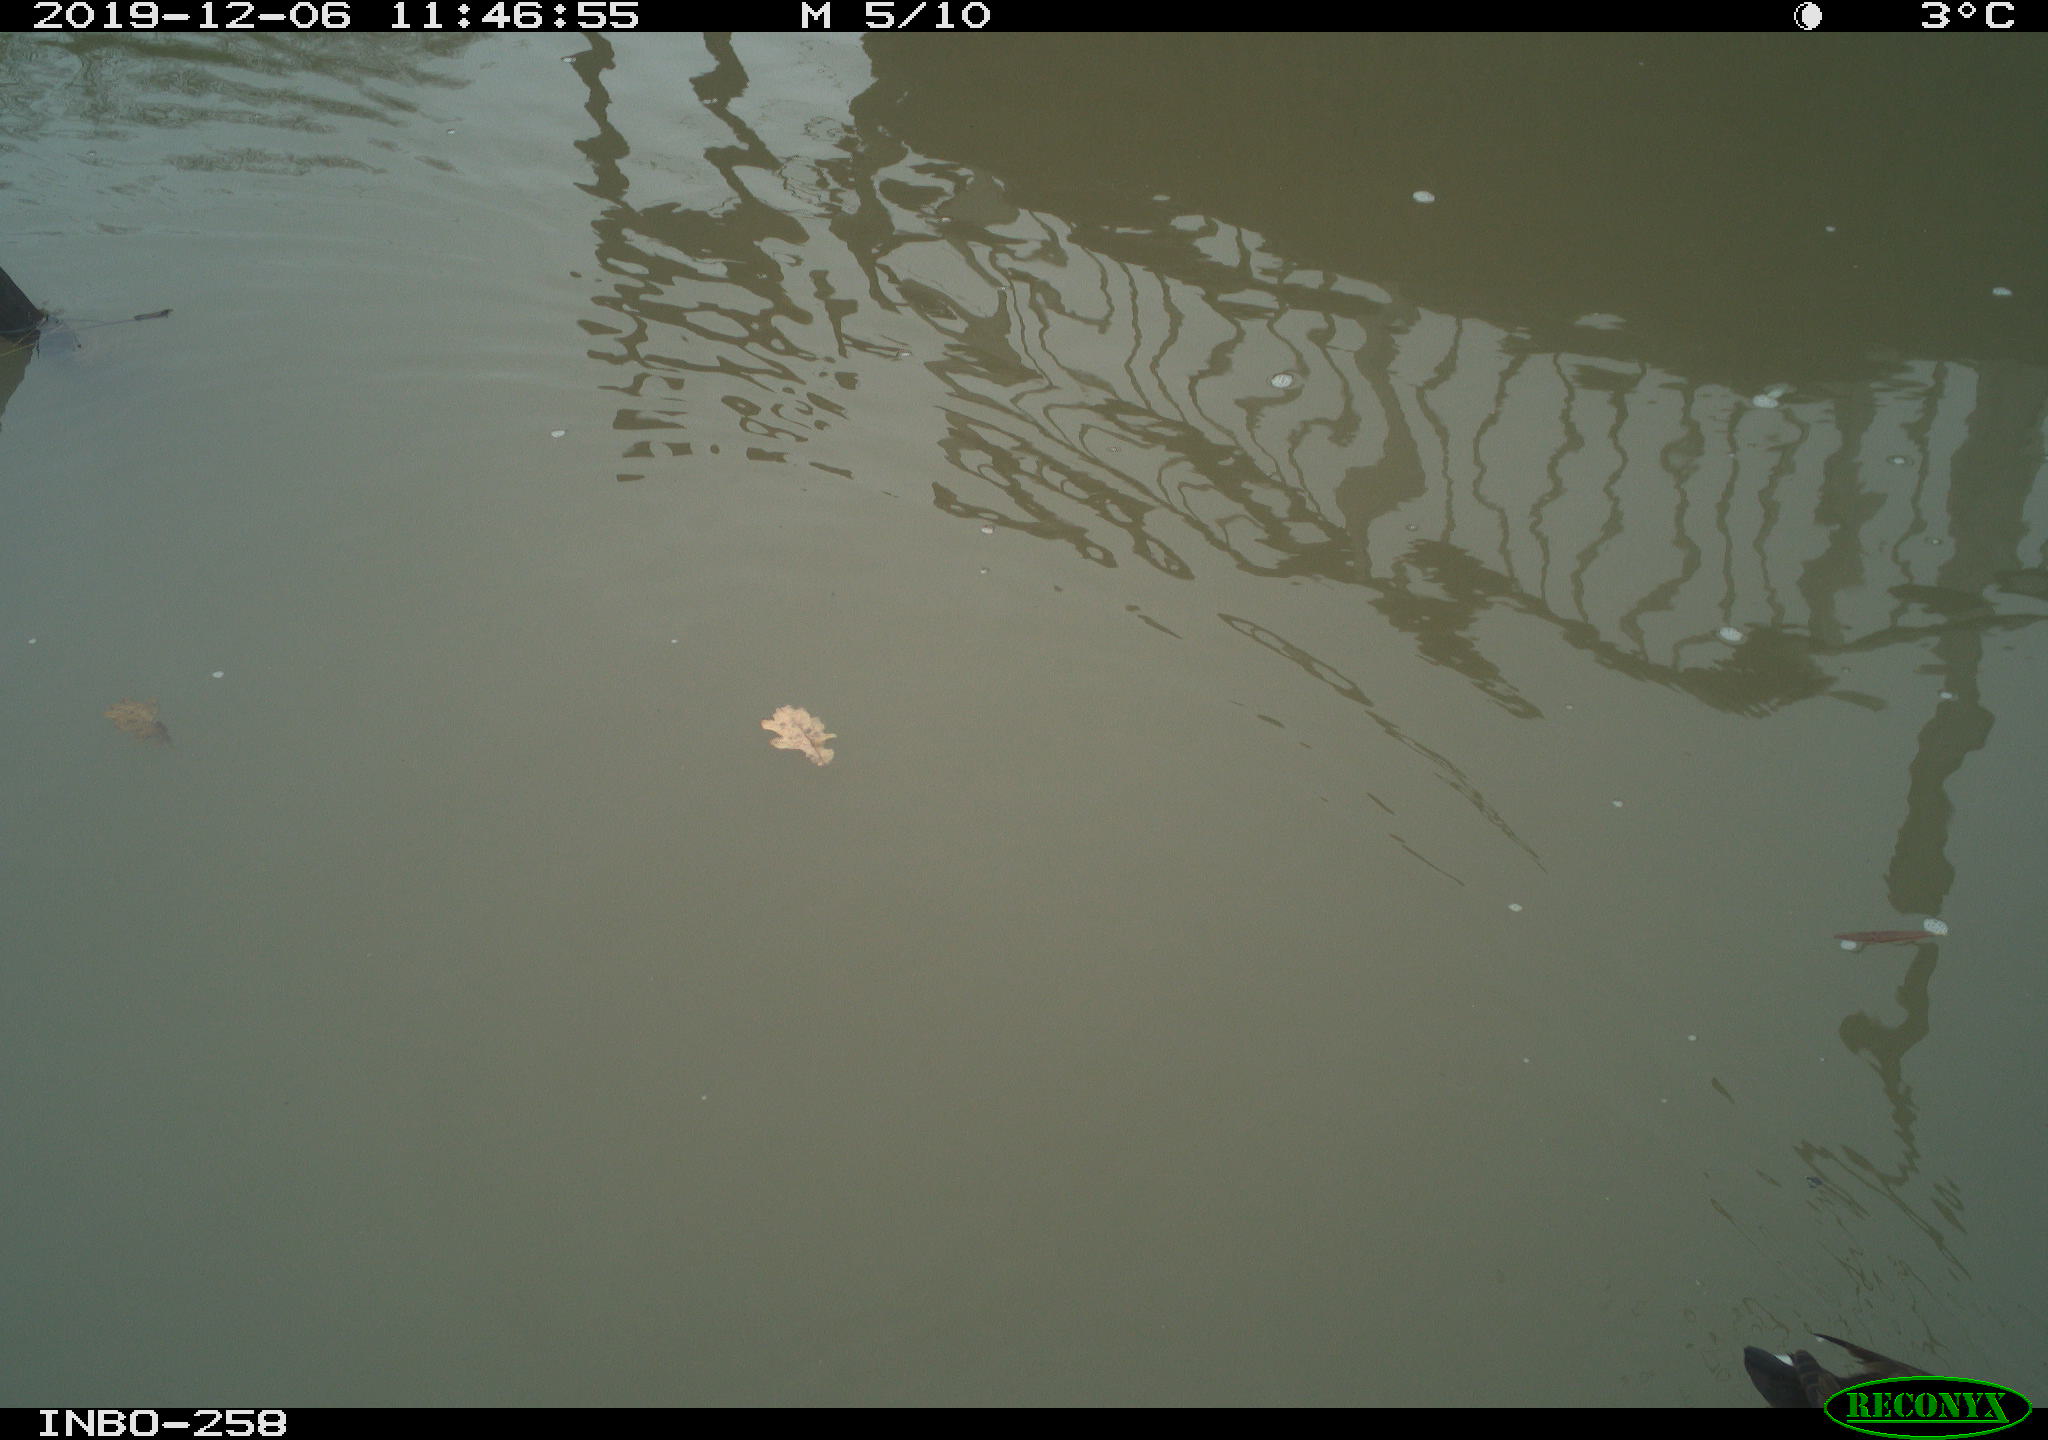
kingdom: Animalia
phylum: Chordata
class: Aves
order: Gruiformes
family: Rallidae
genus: Gallinula
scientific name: Gallinula chloropus
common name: Common moorhen
